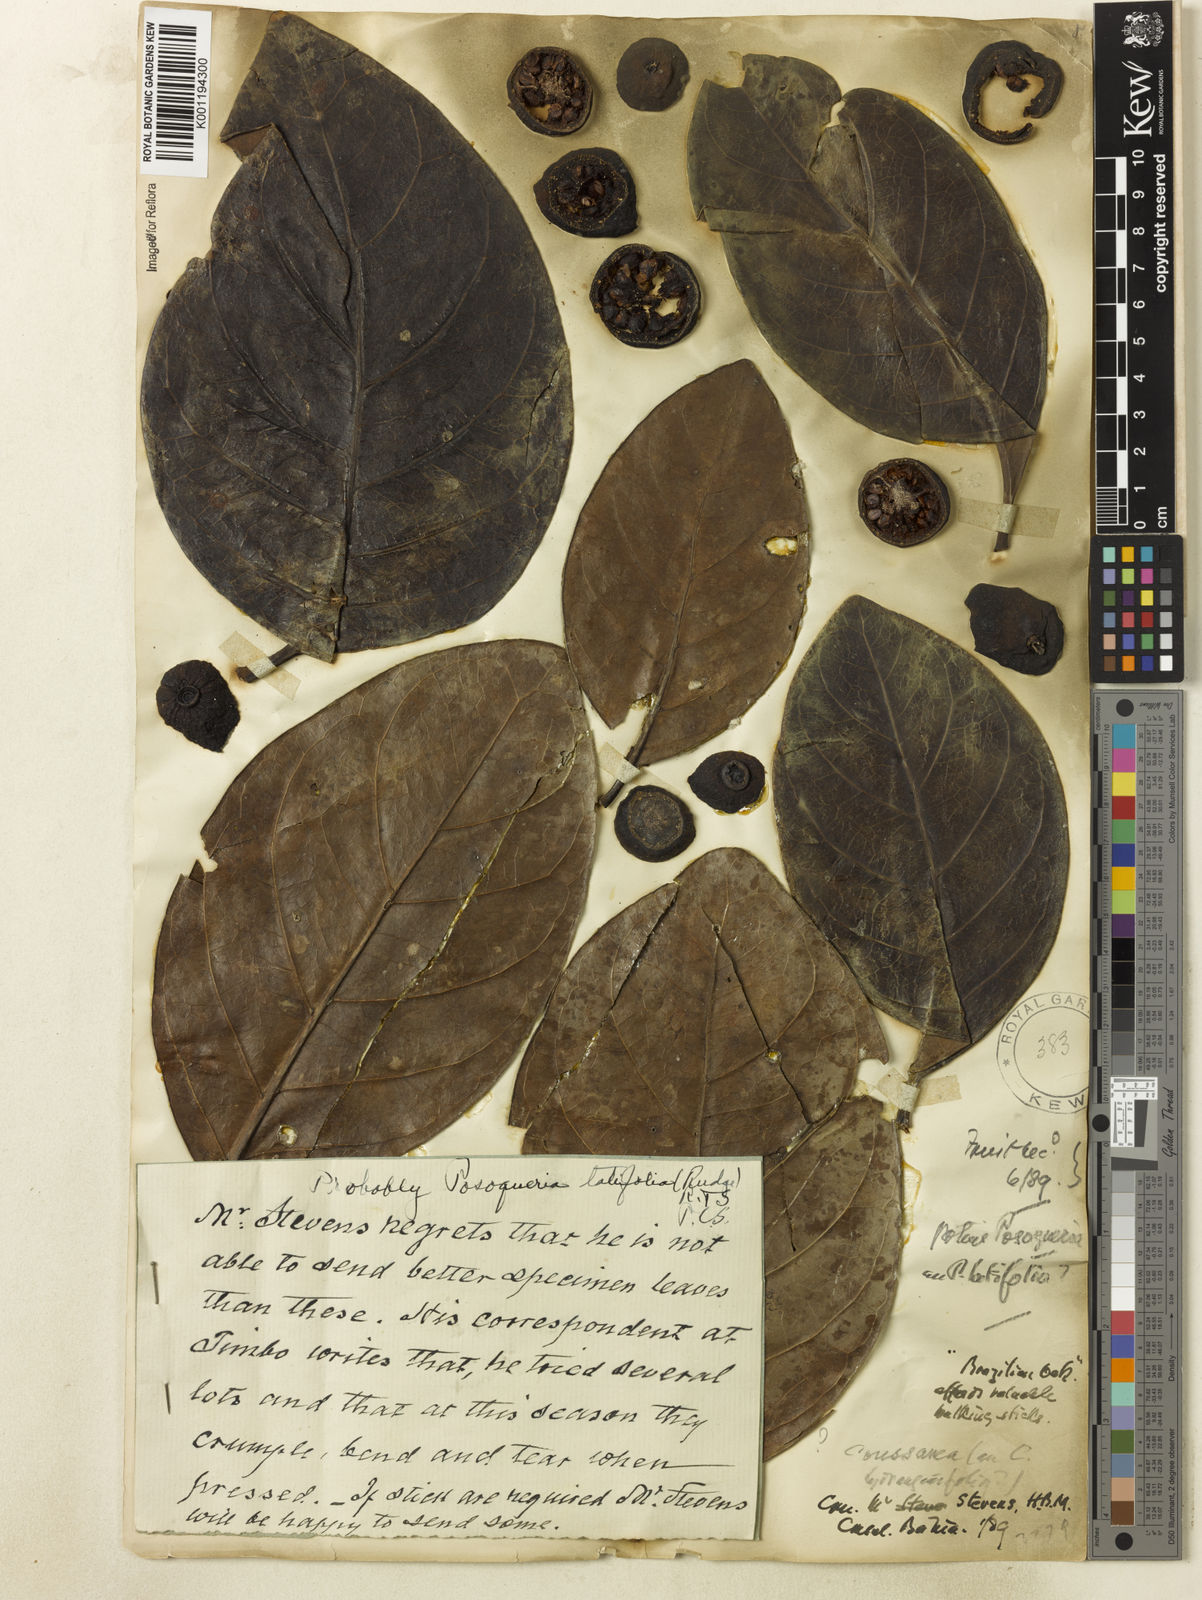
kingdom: Plantae
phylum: Tracheophyta
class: Magnoliopsida
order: Gentianales
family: Rubiaceae
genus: Posoqueria
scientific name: Posoqueria latifolia
